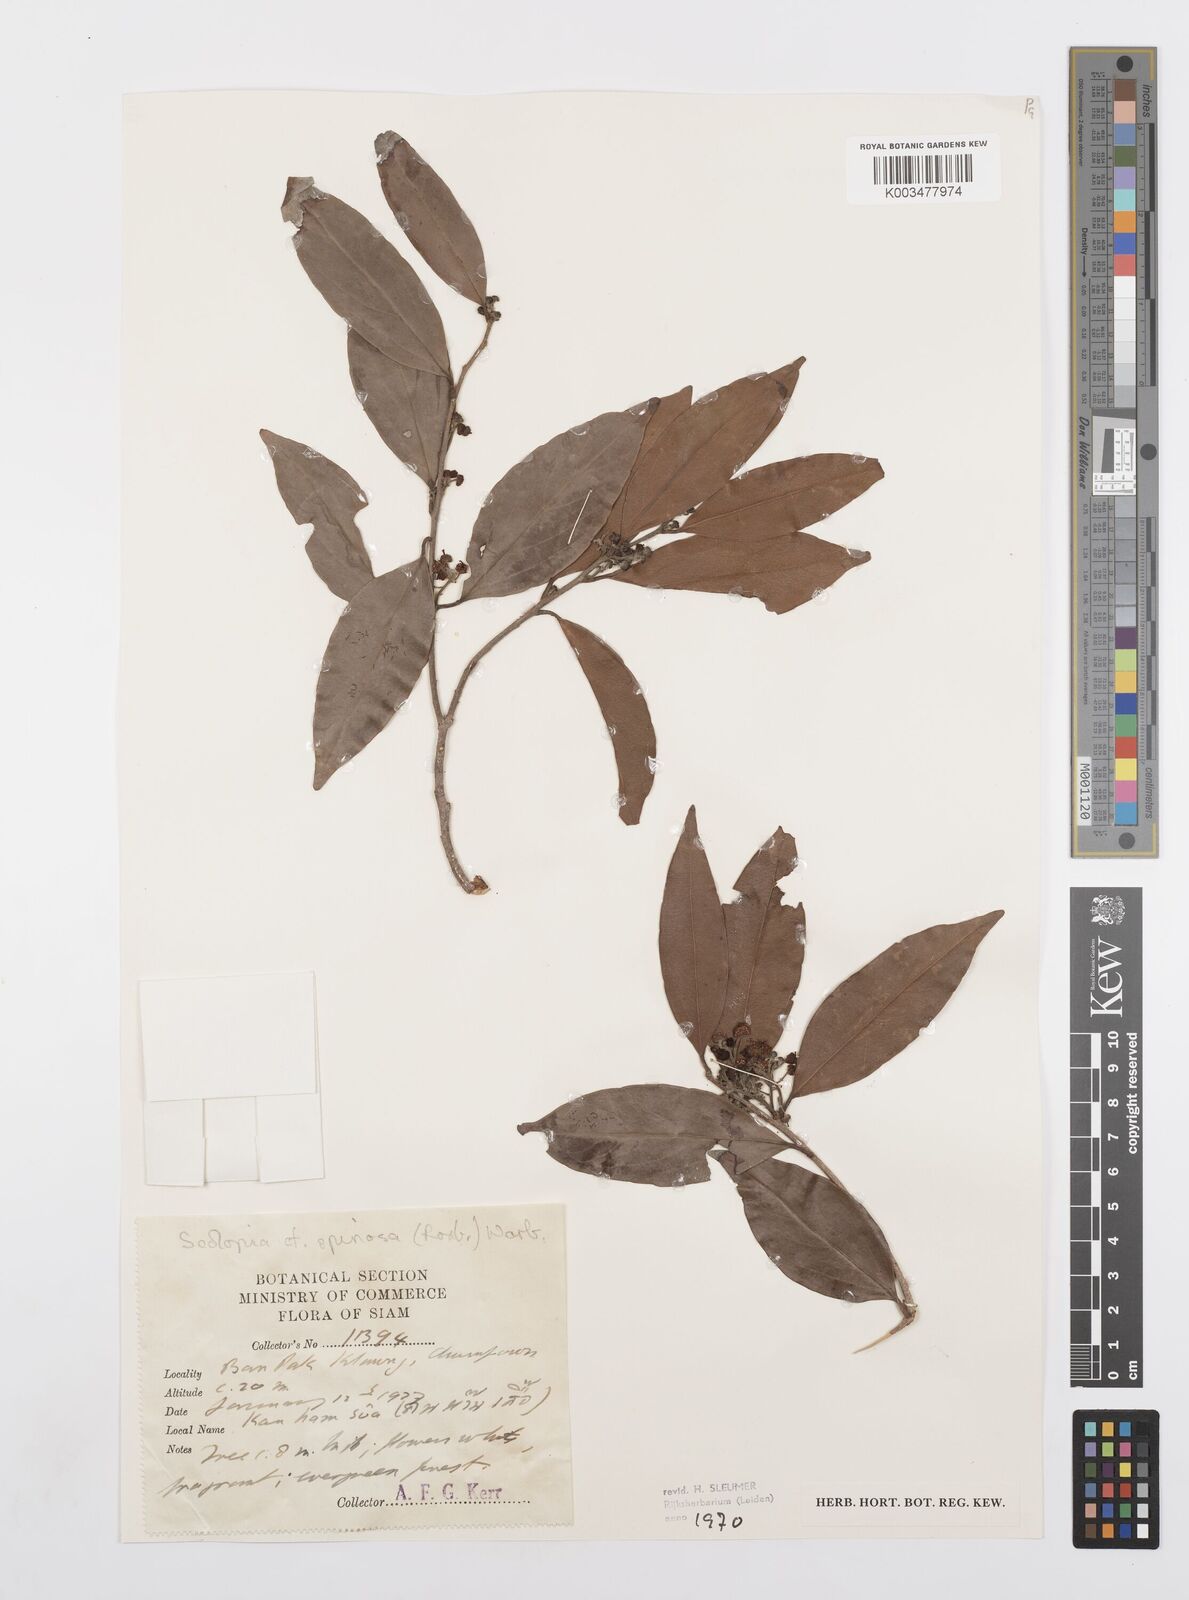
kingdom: Plantae
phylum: Tracheophyta
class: Magnoliopsida
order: Malpighiales
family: Salicaceae
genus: Scolopia
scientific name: Scolopia spinosa
